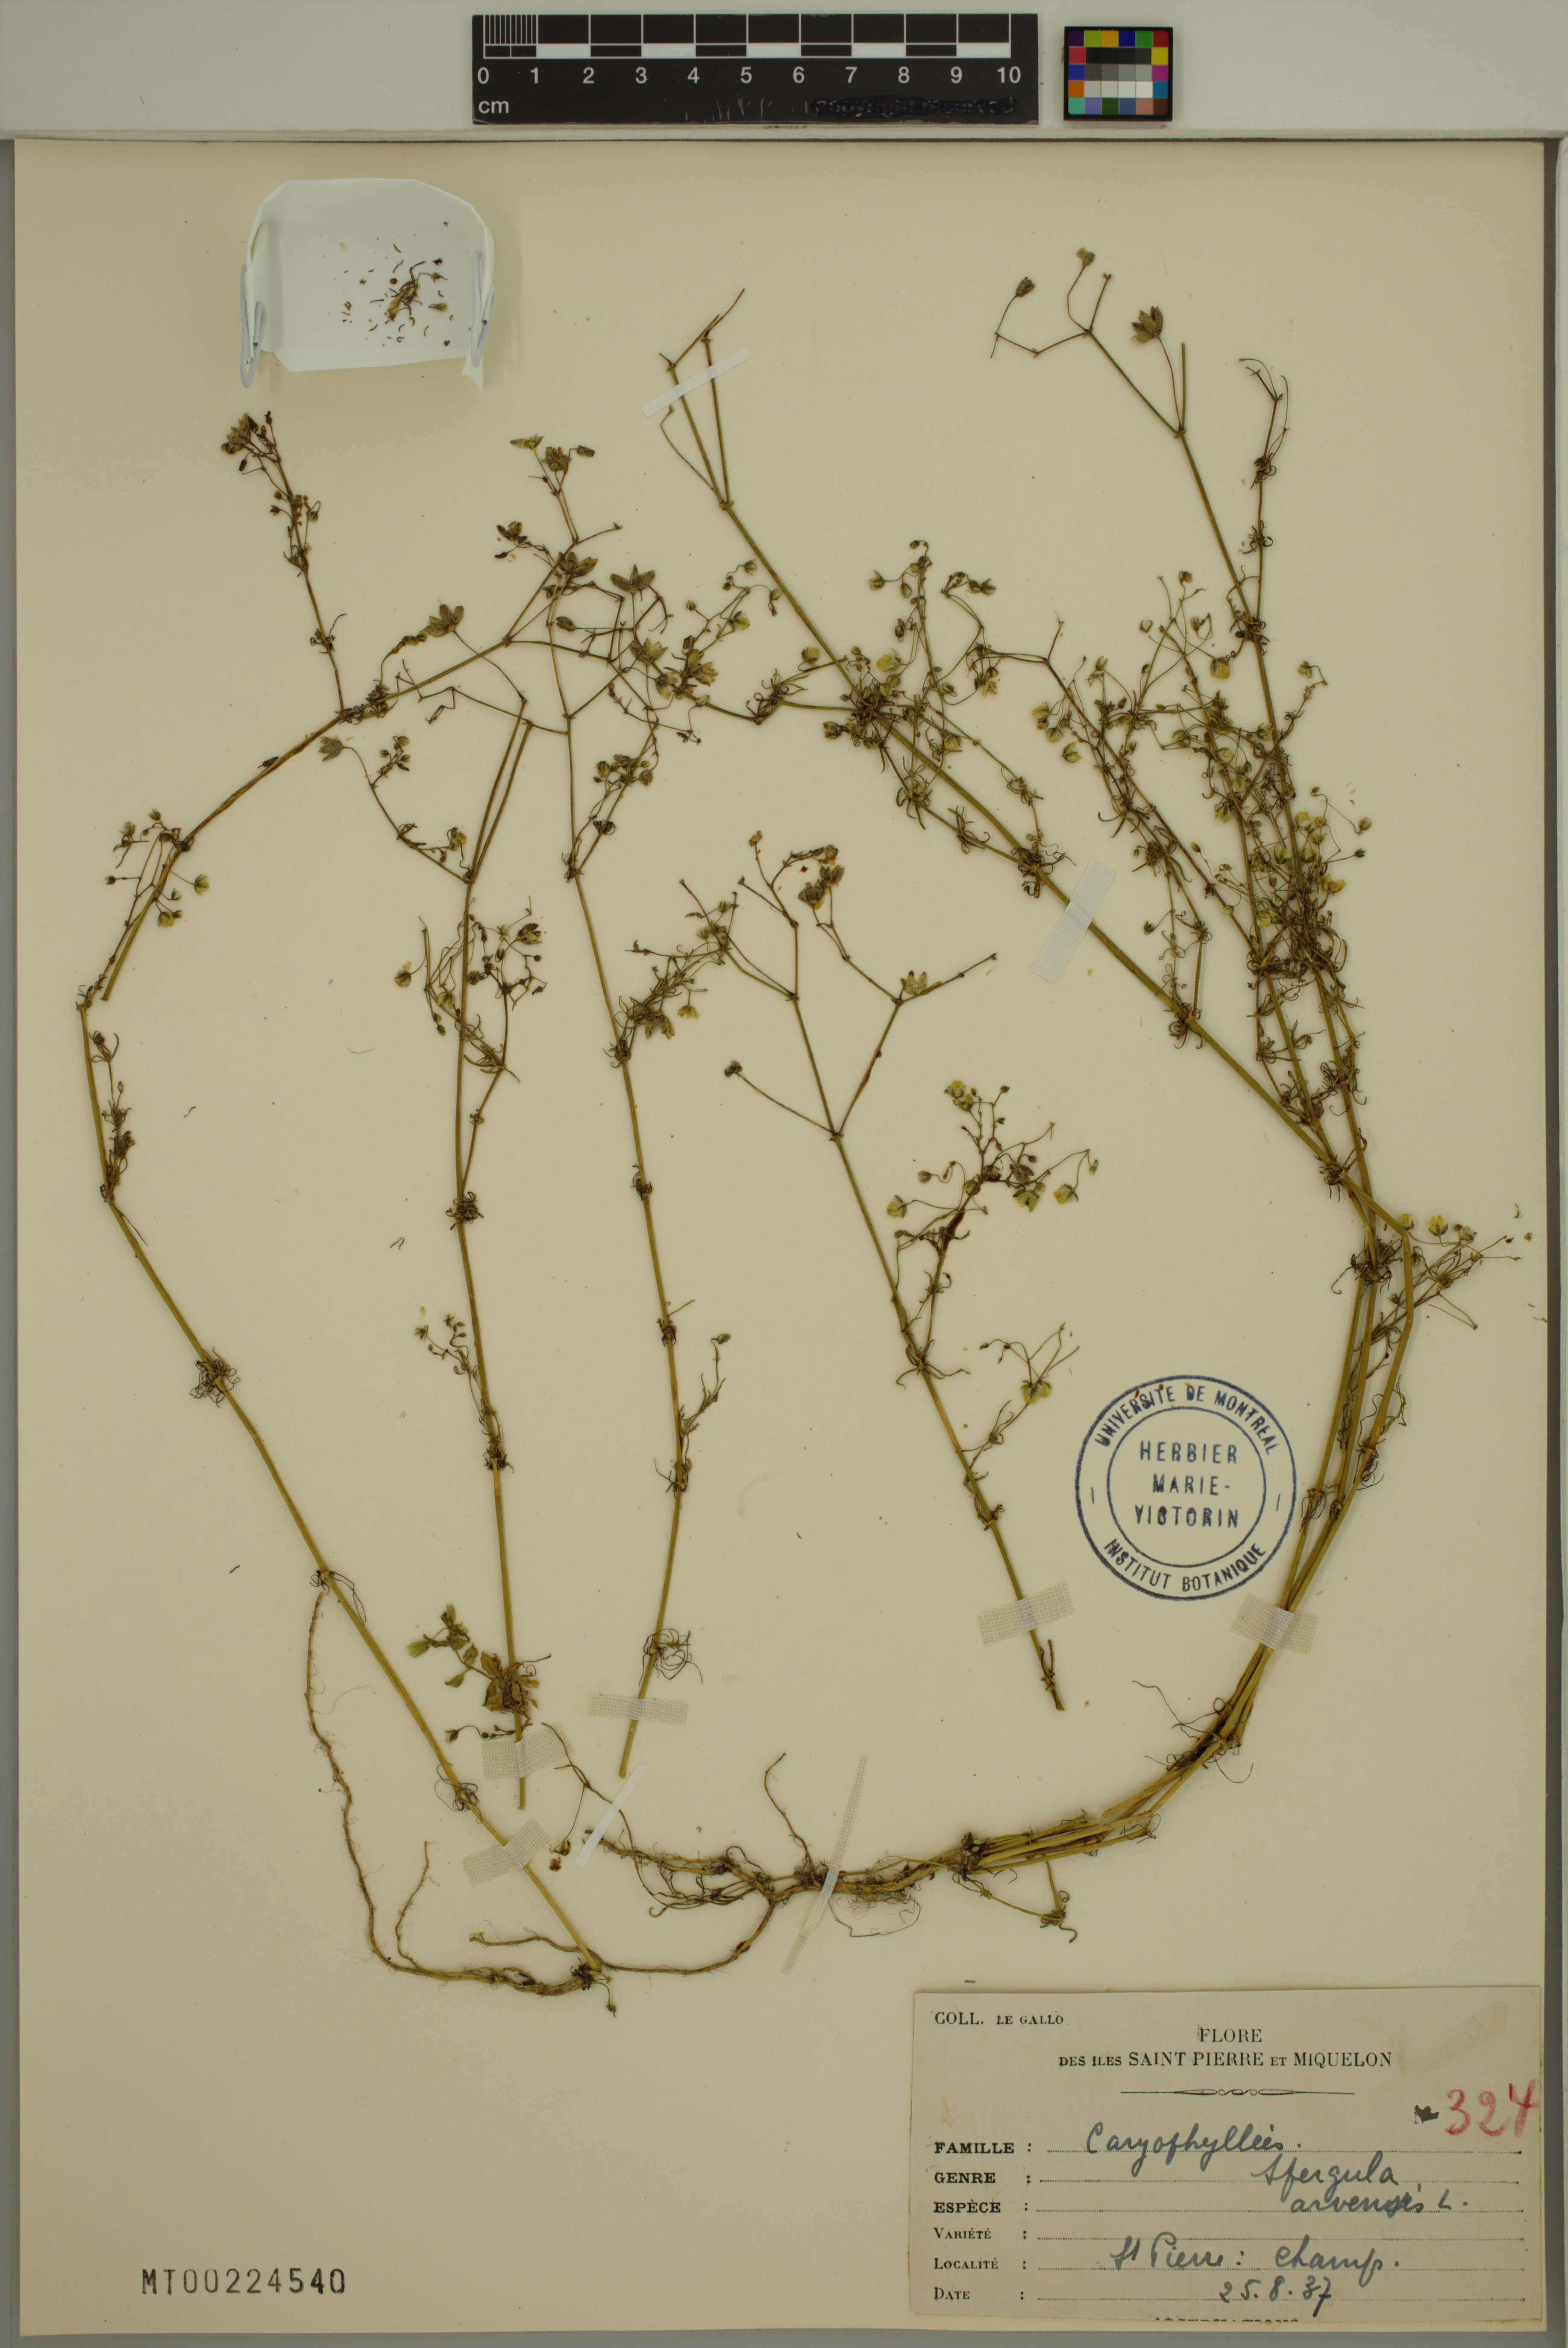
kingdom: Plantae
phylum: Tracheophyta
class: Magnoliopsida
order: Caryophyllales
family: Caryophyllaceae
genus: Spergula
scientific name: Spergula arvensis
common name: Corn spurrey
